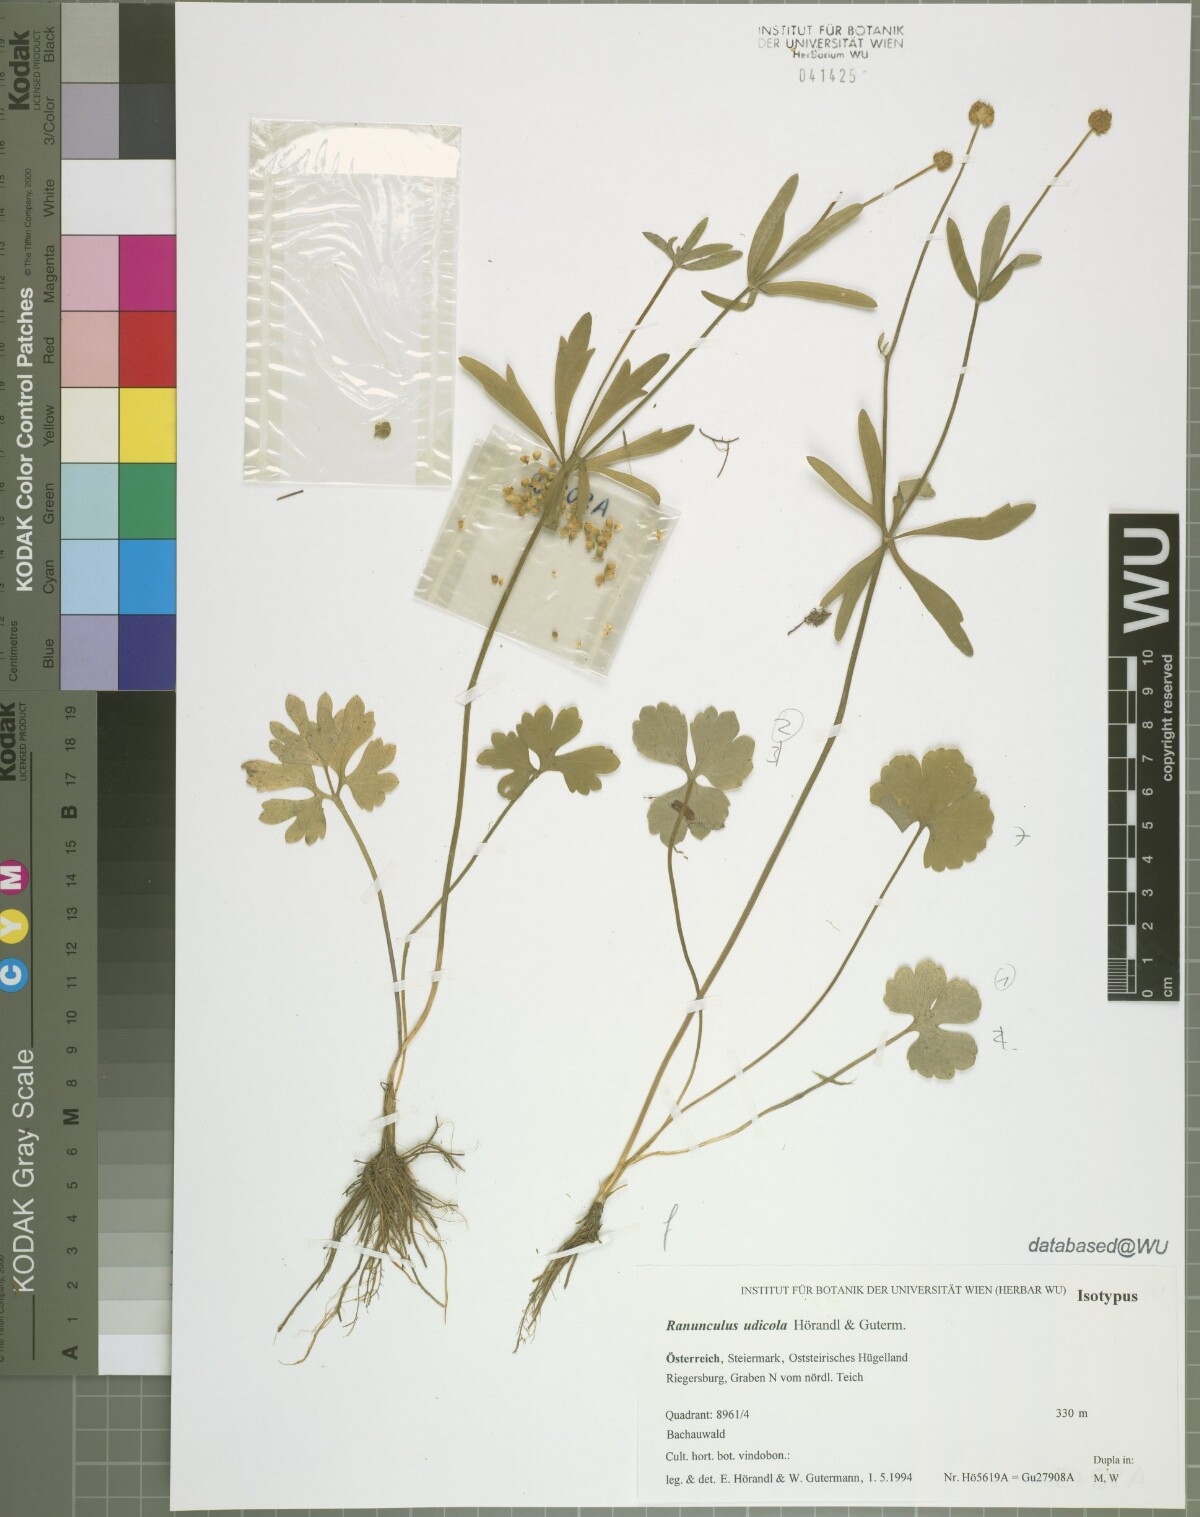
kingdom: Plantae
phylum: Tracheophyta
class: Magnoliopsida
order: Ranunculales
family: Ranunculaceae
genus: Ranunculus
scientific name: Ranunculus udicola
